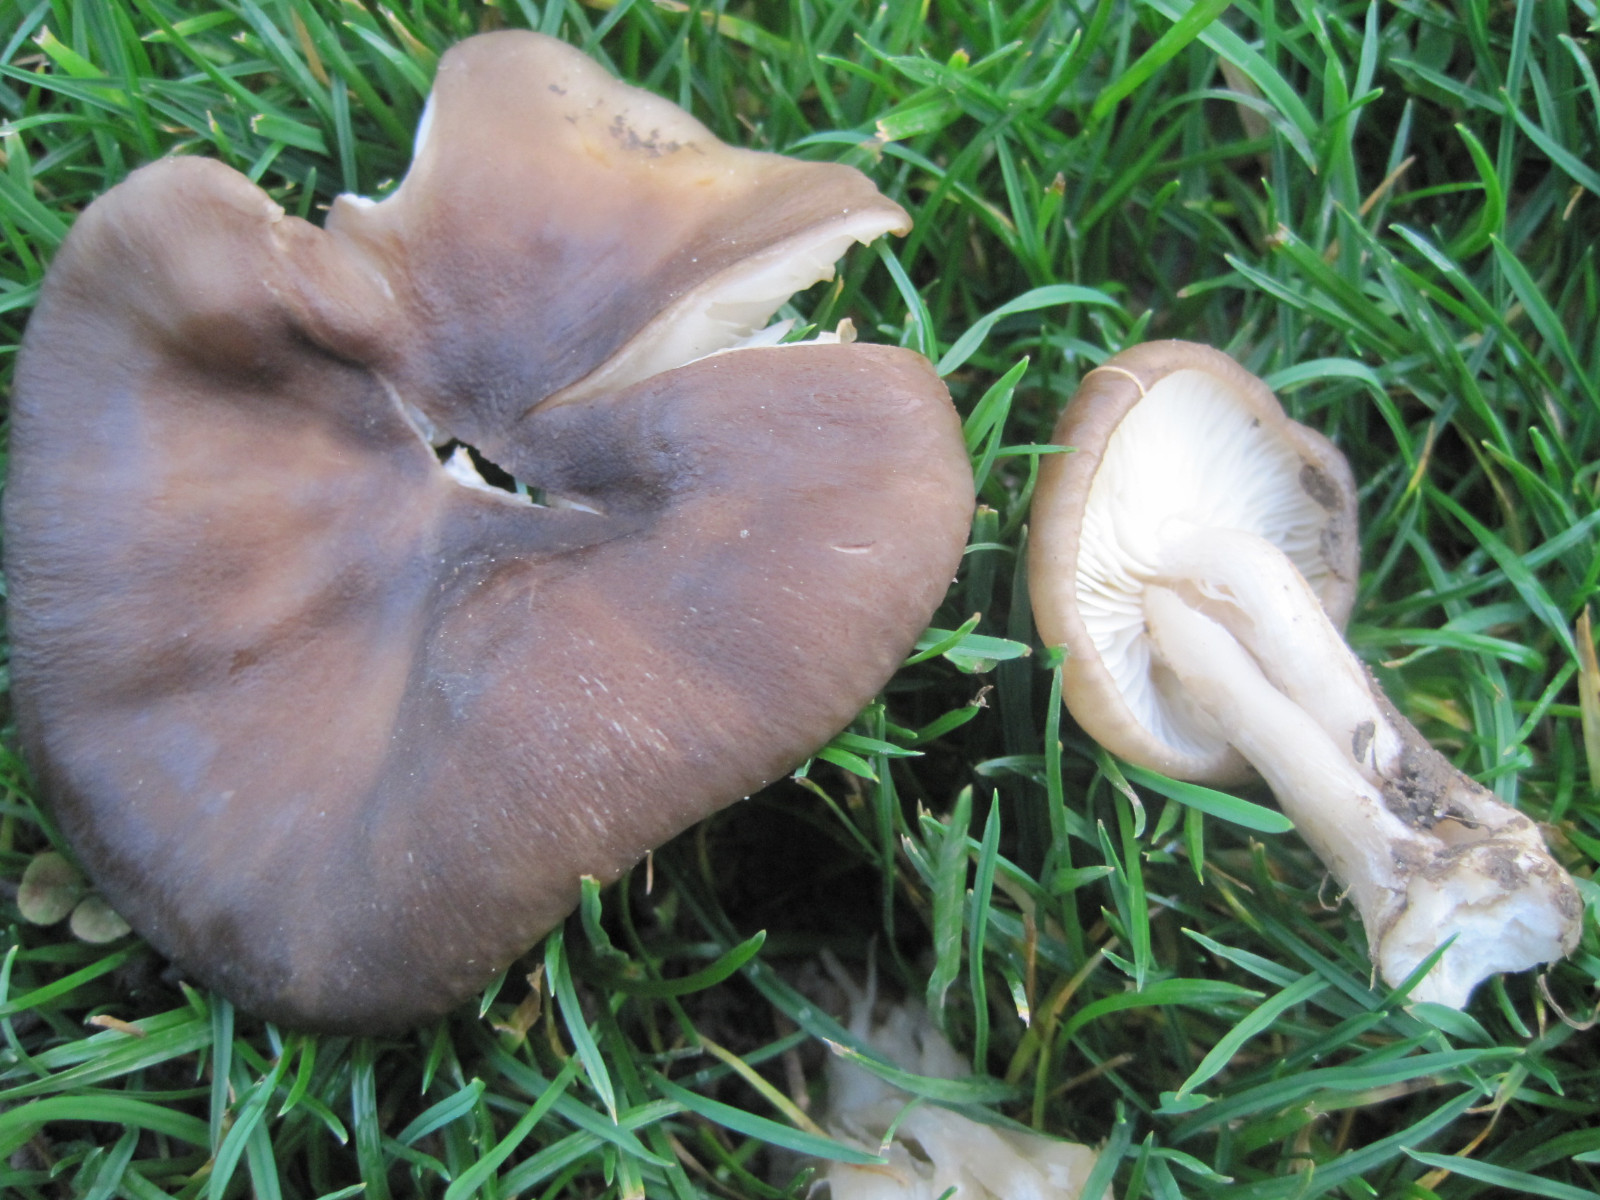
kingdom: Fungi
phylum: Basidiomycota
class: Agaricomycetes
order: Agaricales
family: Lyophyllaceae
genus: Lyophyllum
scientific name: Lyophyllum decastes
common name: Clustered domecap
